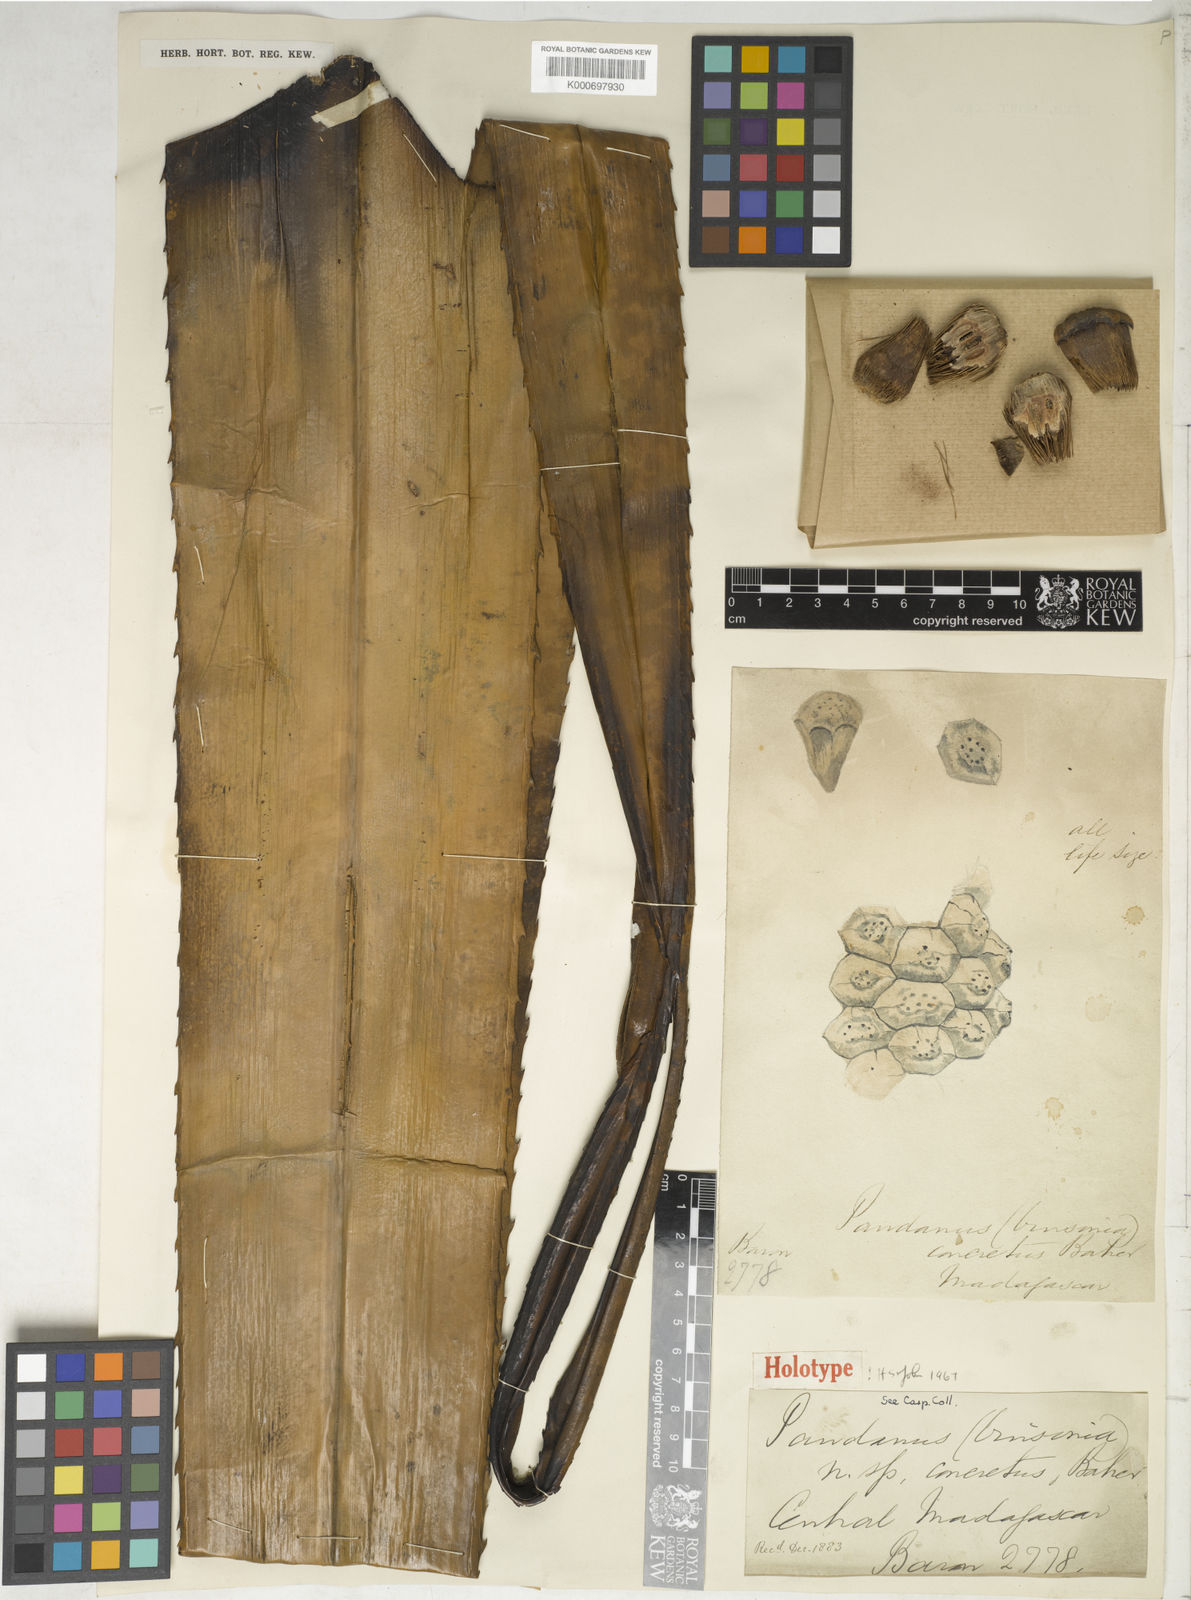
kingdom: Plantae
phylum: Tracheophyta
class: Liliopsida
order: Pandanales
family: Pandanaceae
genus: Pandanus
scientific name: Pandanus concretus
